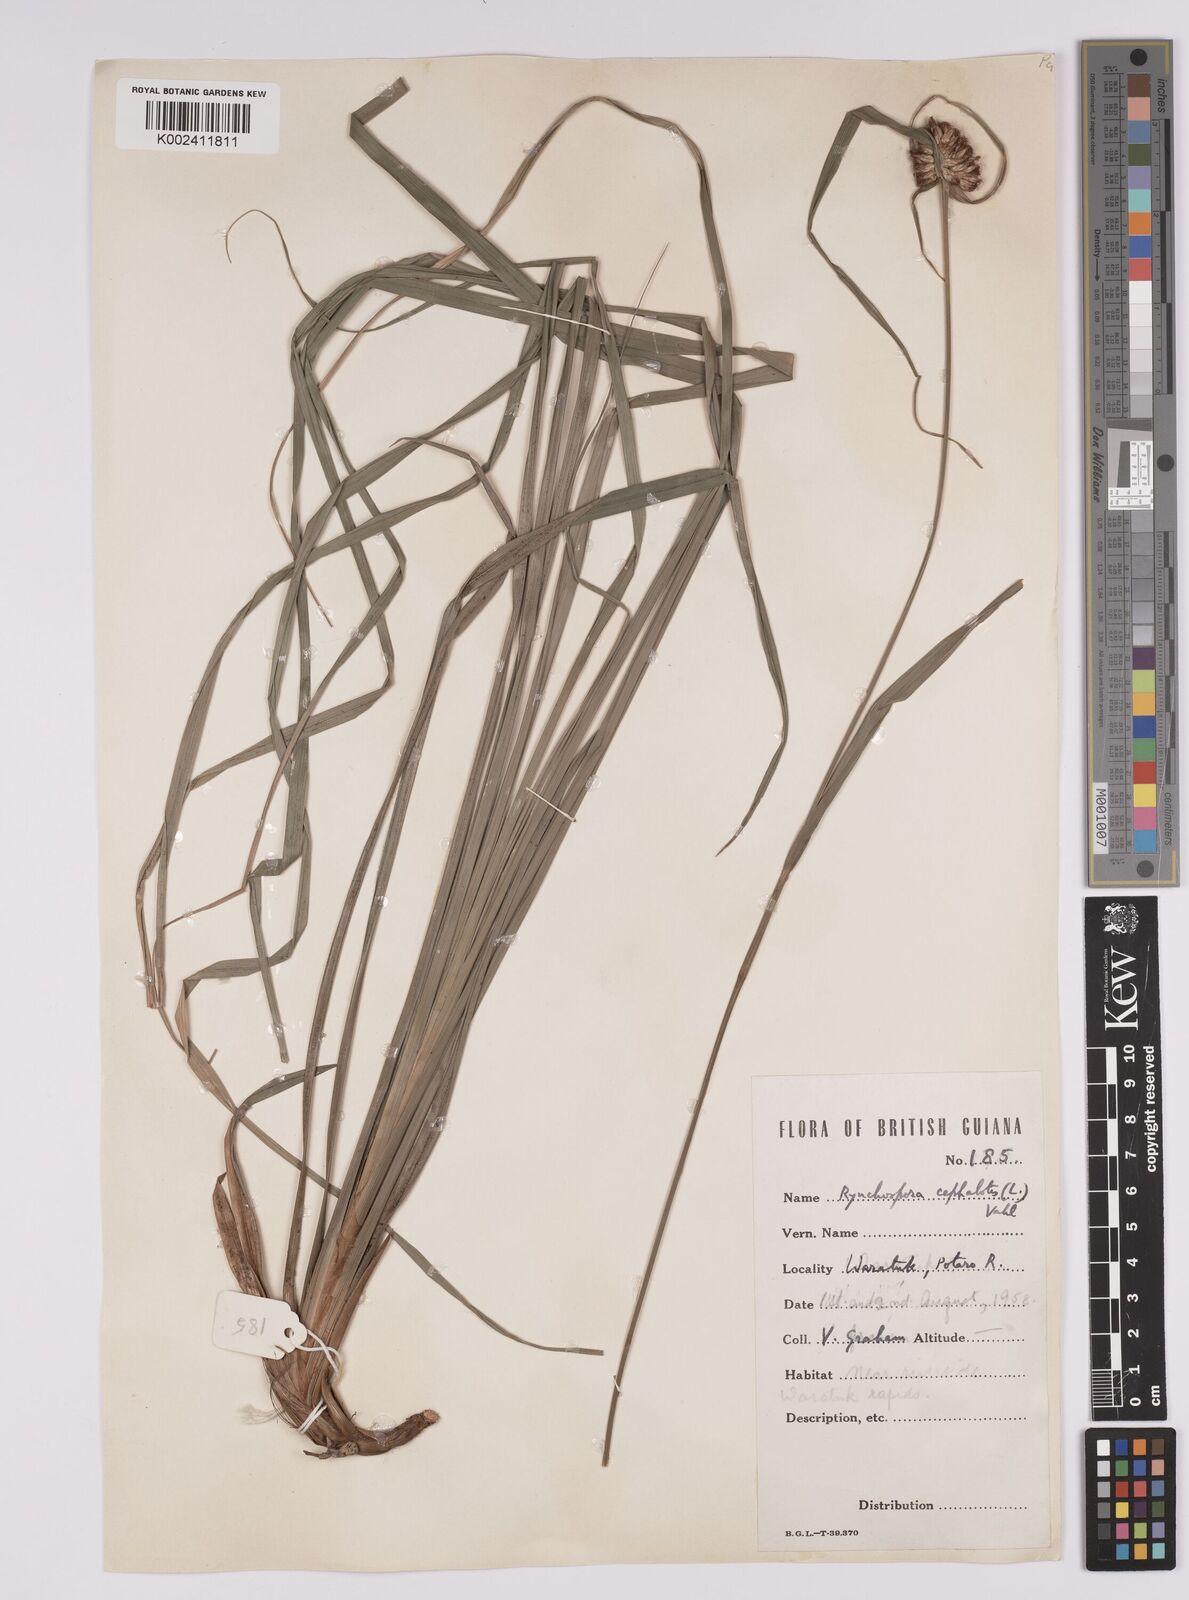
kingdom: Plantae
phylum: Tracheophyta
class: Liliopsida
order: Poales
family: Cyperaceae
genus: Rhynchospora
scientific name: Rhynchospora cephalotes
